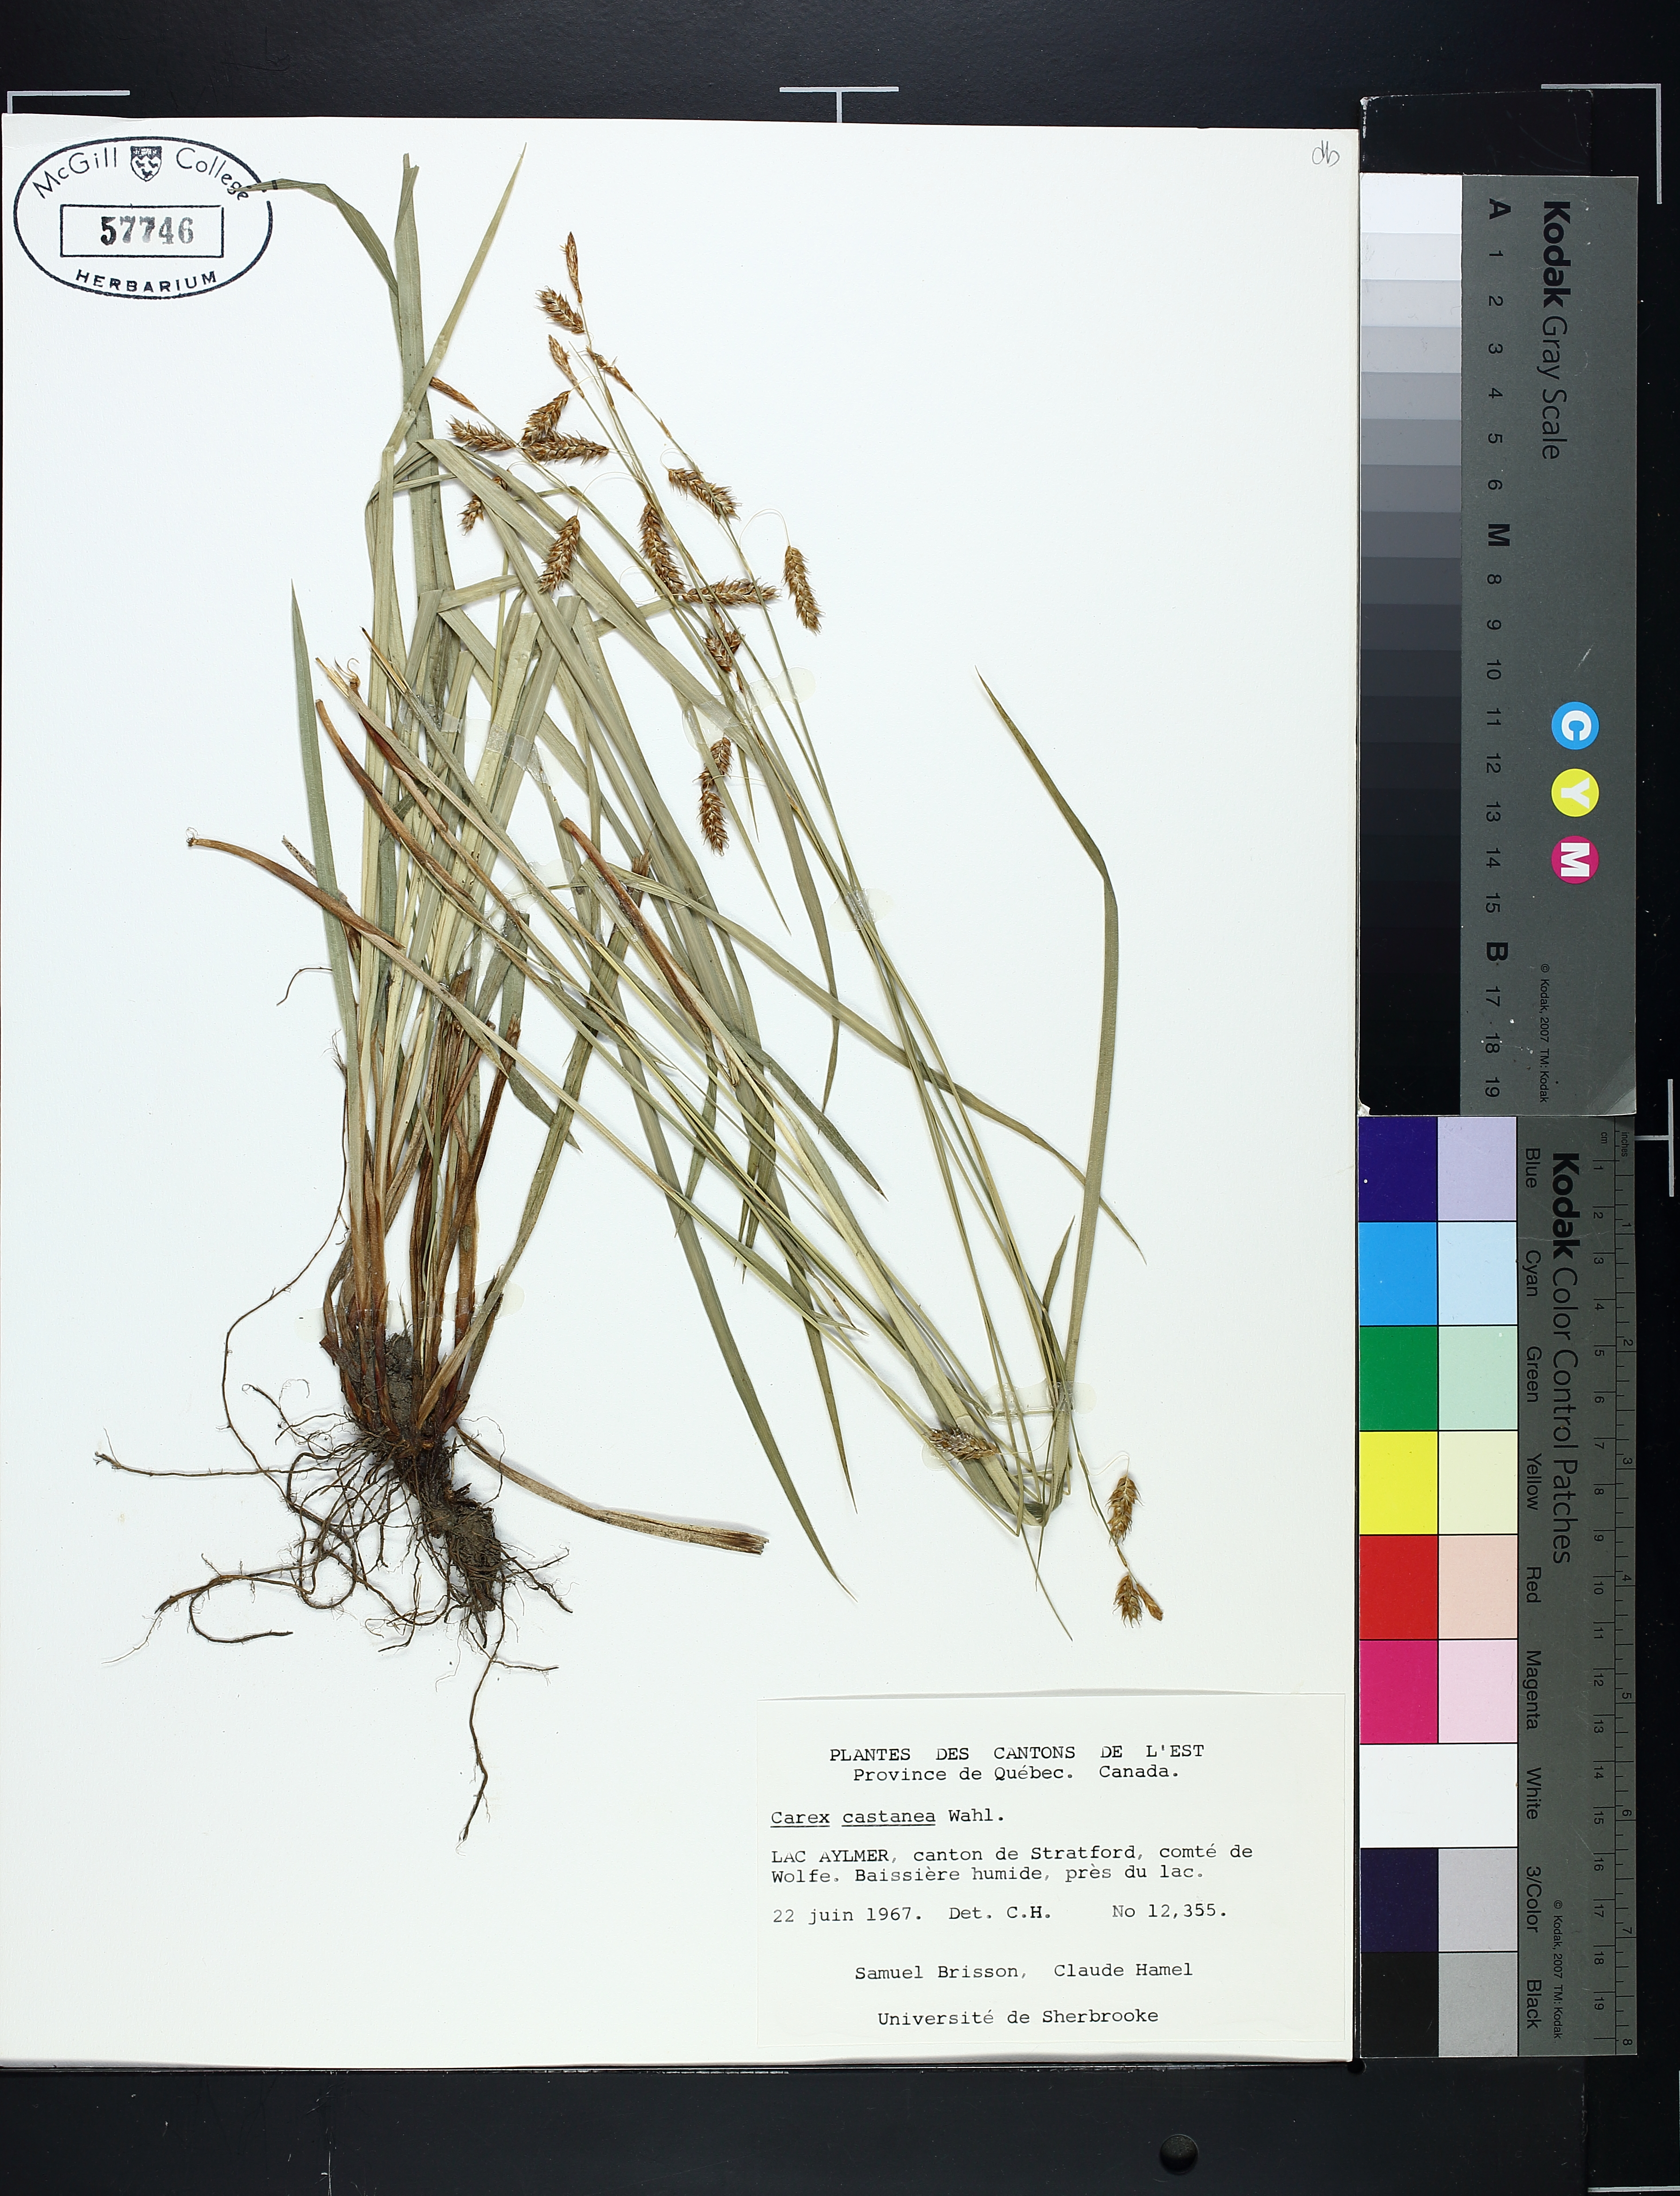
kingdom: Plantae
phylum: Tracheophyta
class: Liliopsida
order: Poales
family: Cyperaceae
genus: Carex
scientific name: Carex castanea
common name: Chestnut sedge
